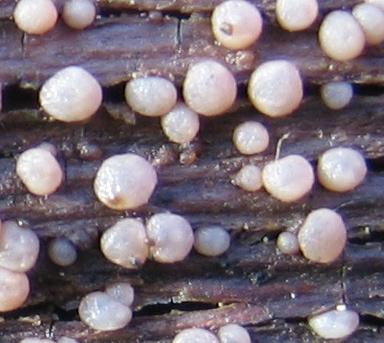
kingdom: Fungi
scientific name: Fungi
